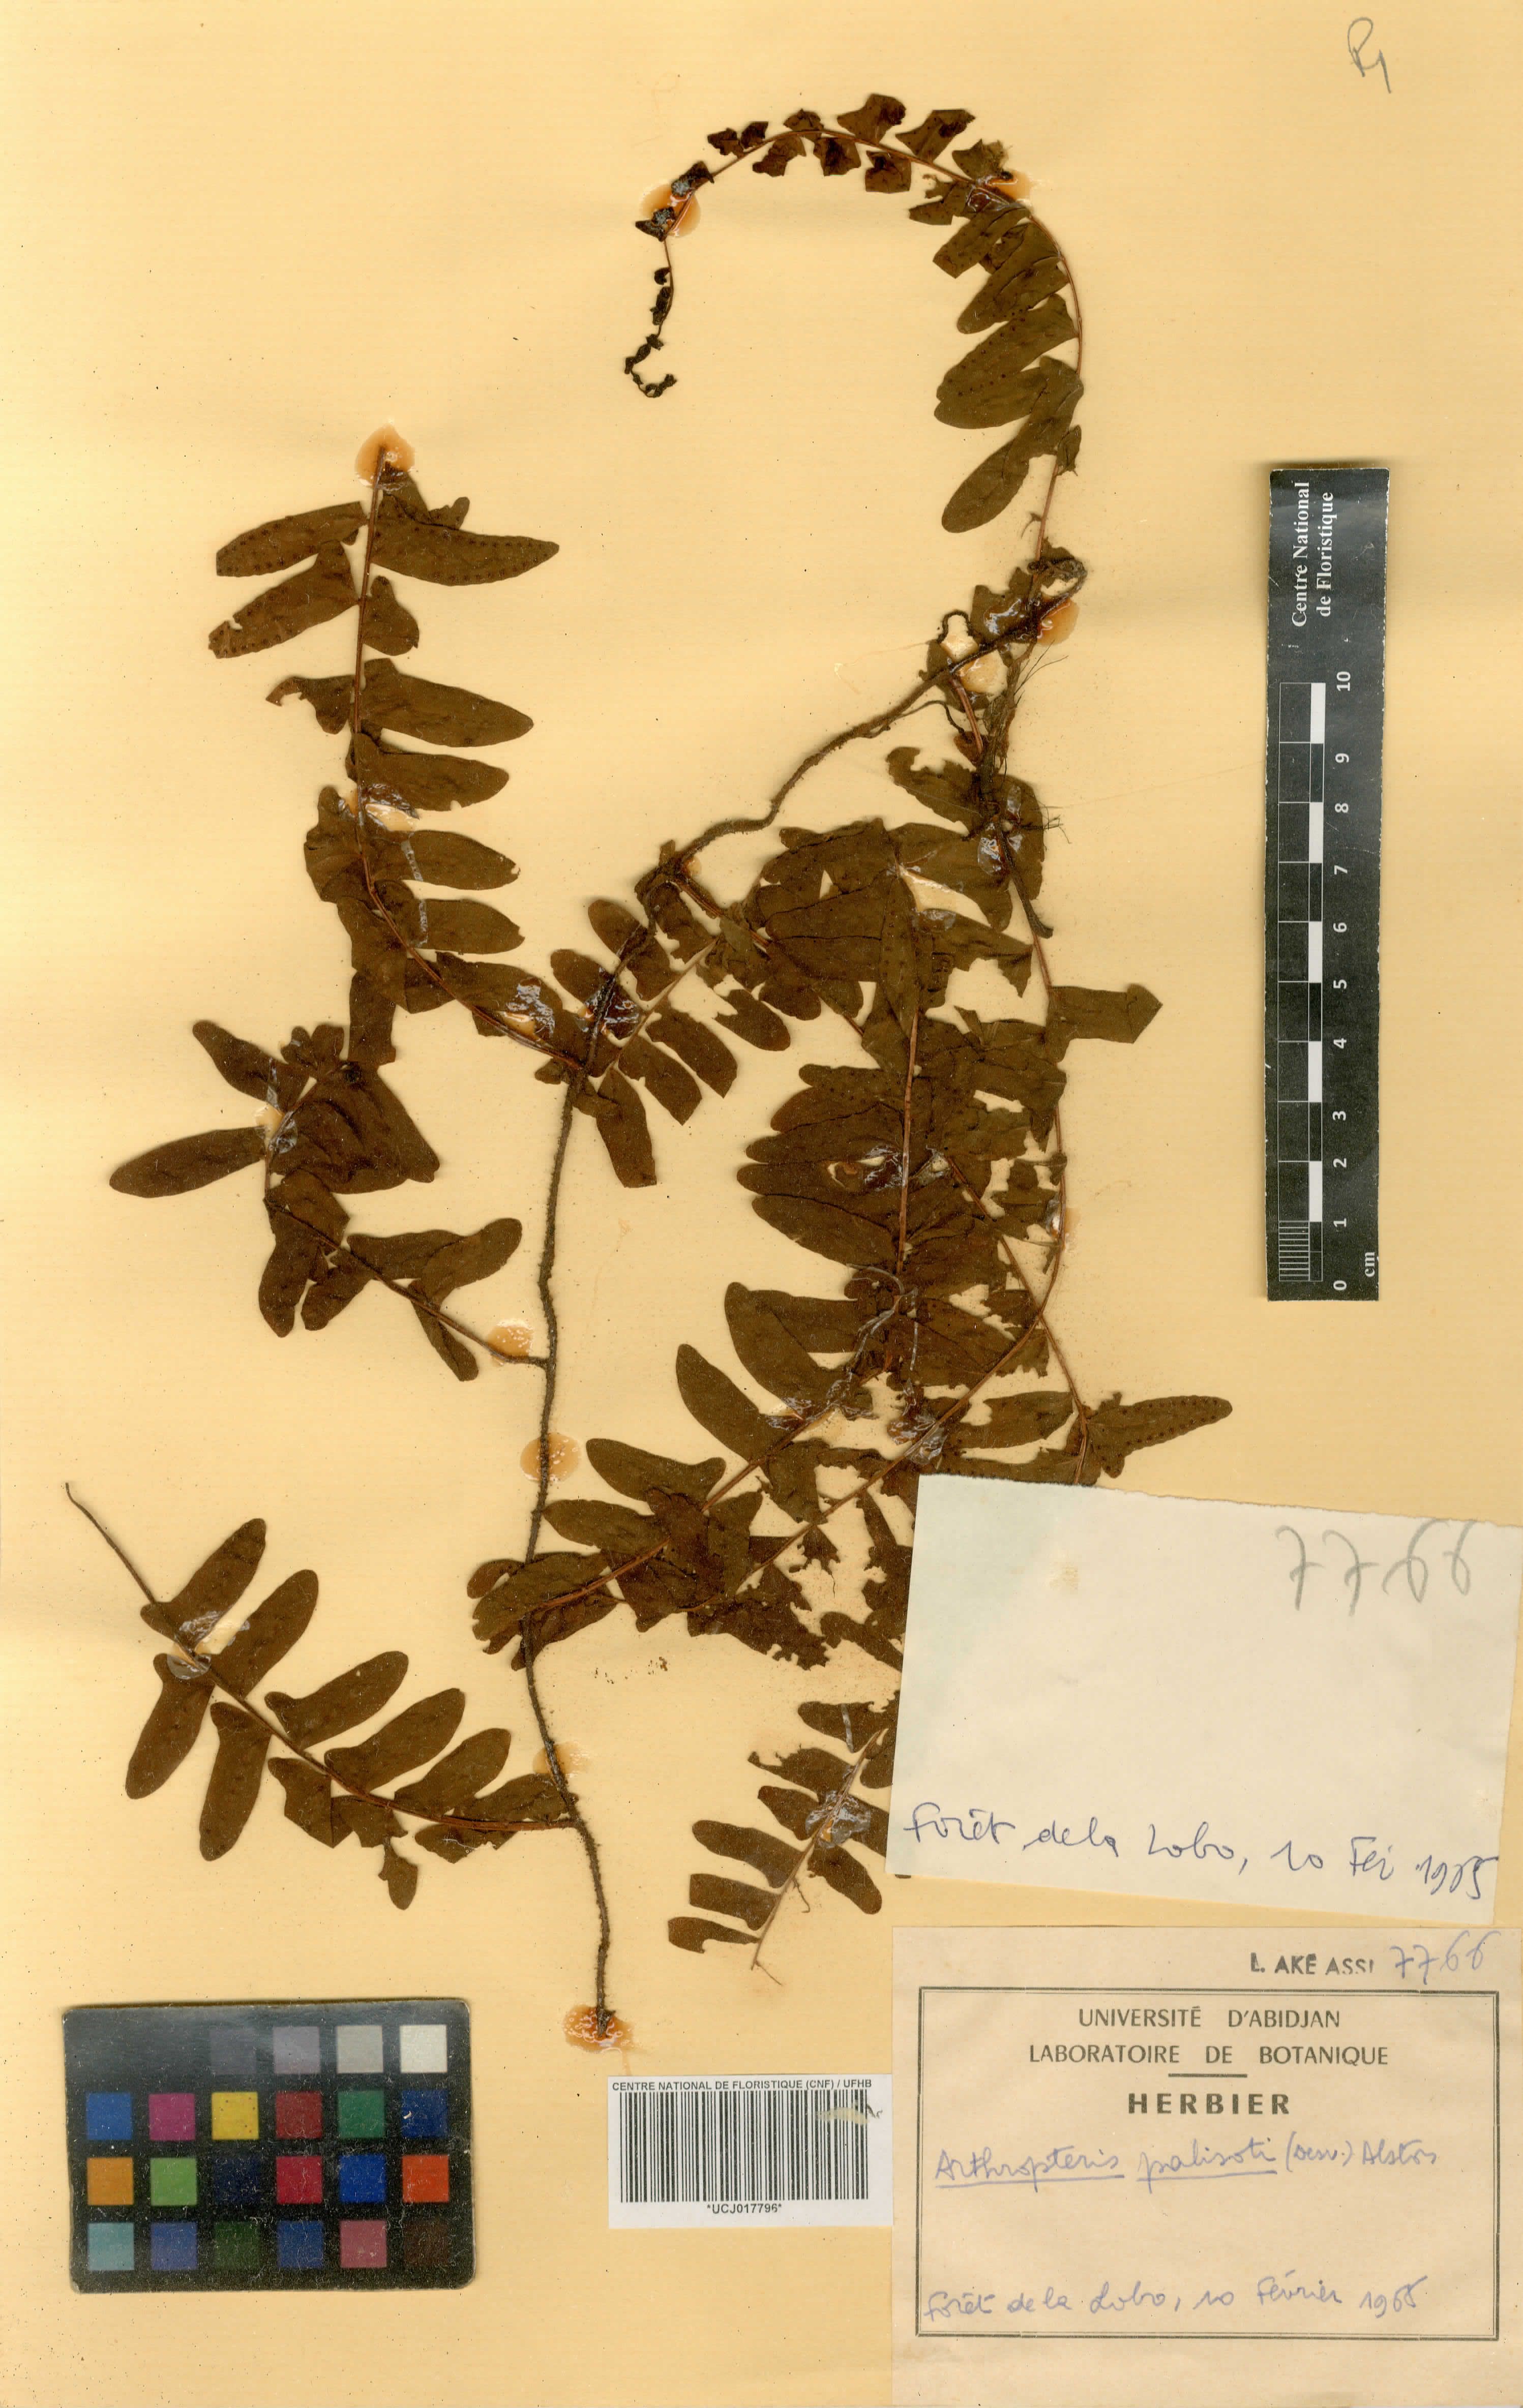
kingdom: Plantae
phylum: Tracheophyta
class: Polypodiopsida
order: Polypodiales
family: Tectariaceae
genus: Arthropteris
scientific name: Arthropteris palisotii
